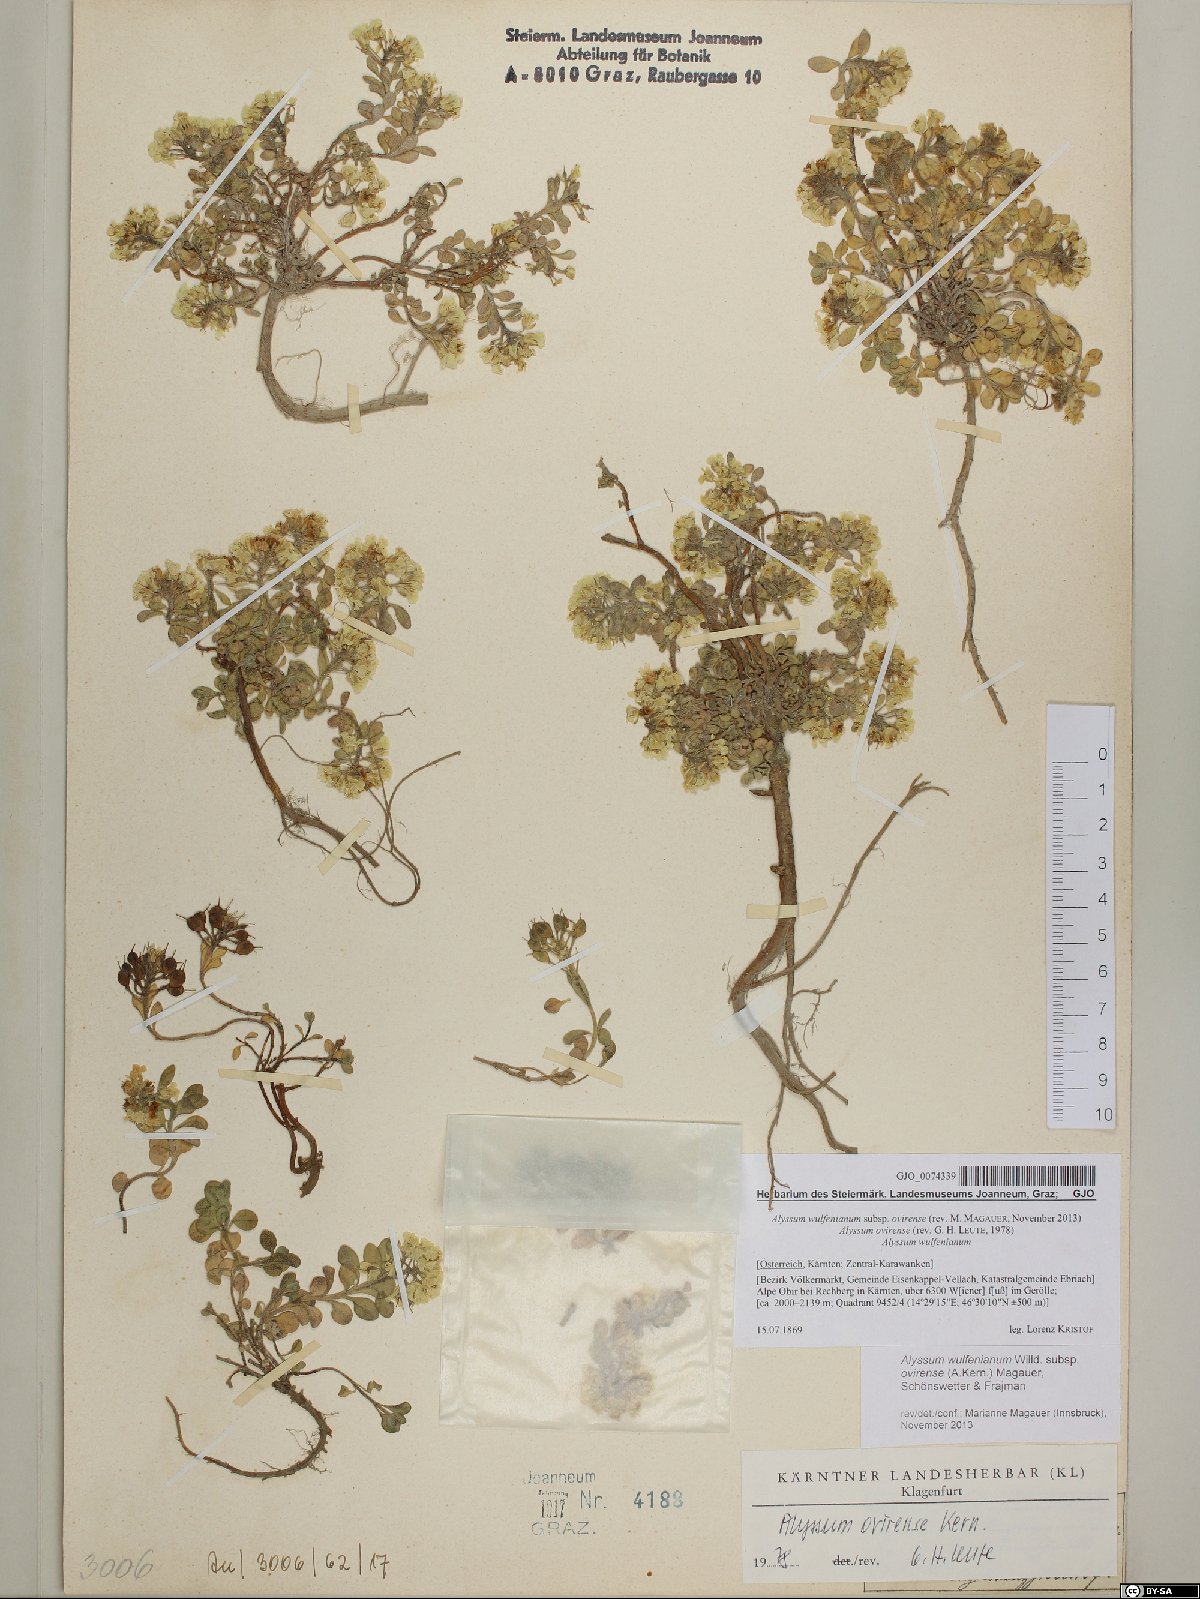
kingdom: Plantae
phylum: Tracheophyta
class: Magnoliopsida
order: Brassicales
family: Brassicaceae
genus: Alyssum
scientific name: Alyssum wulfenianum
